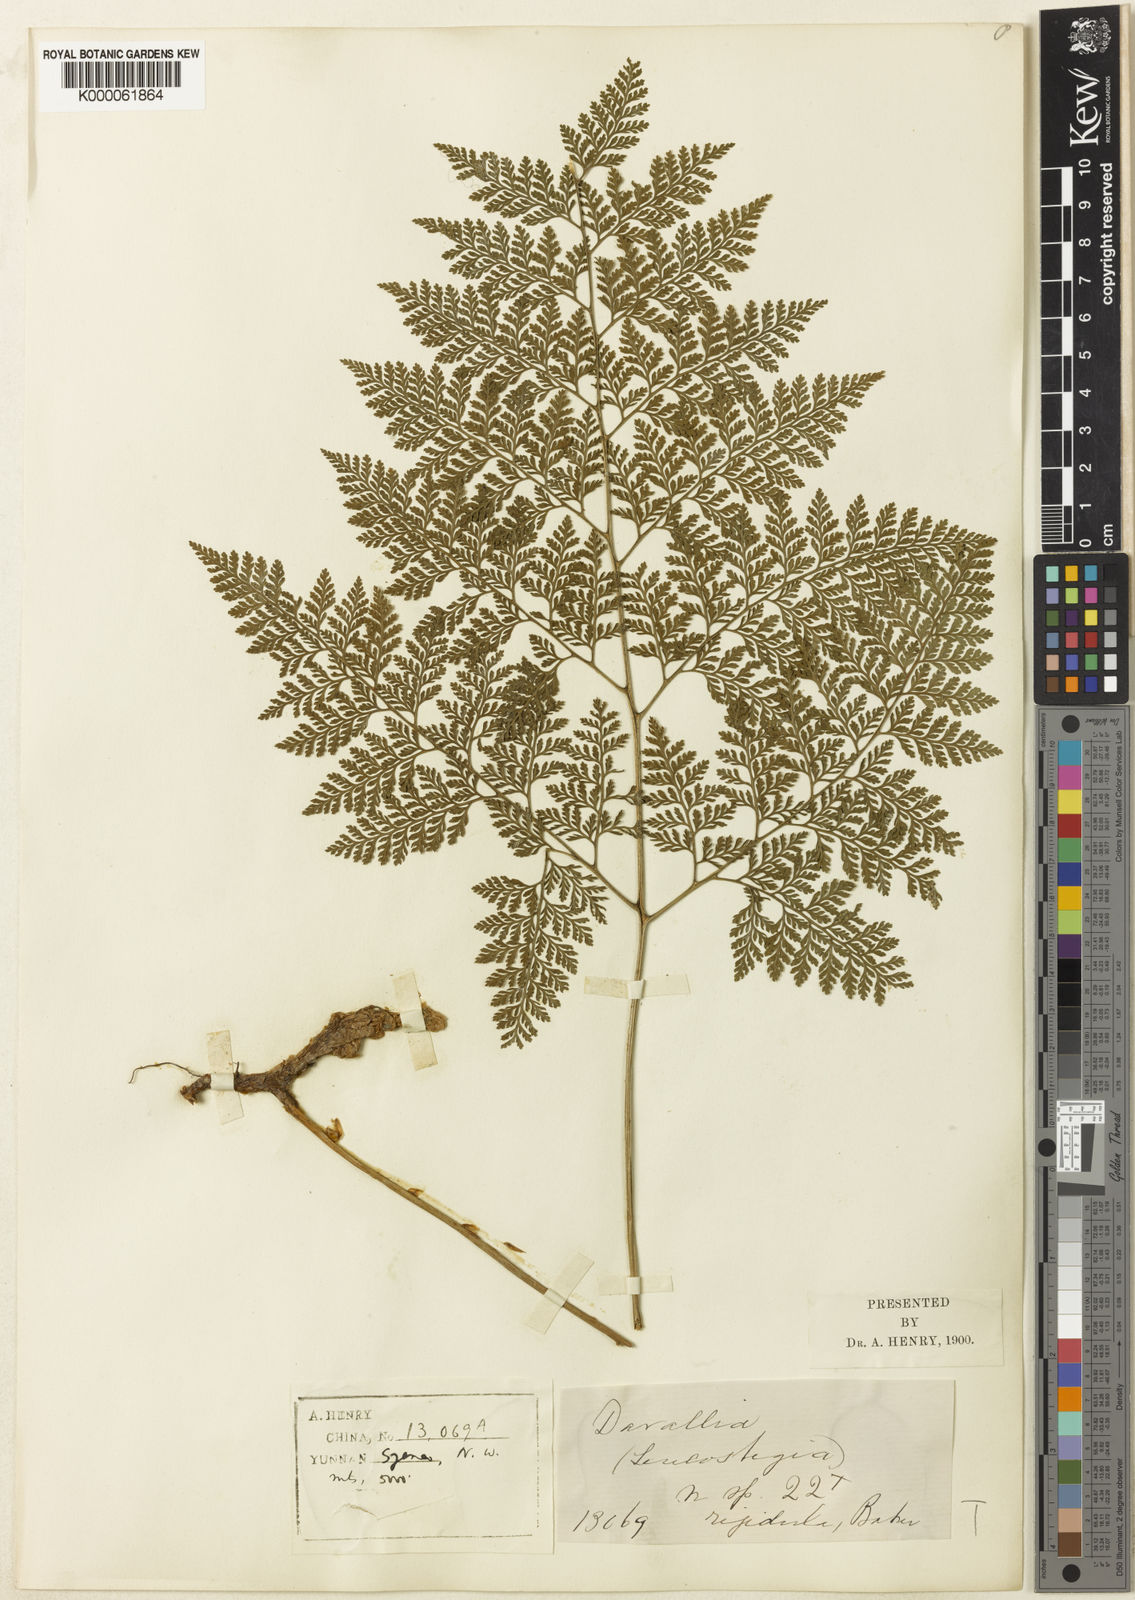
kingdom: Plantae
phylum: Tracheophyta
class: Polypodiopsida
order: Polypodiales
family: Davalliaceae
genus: Davallodes
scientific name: Davallodes yunnanensis
